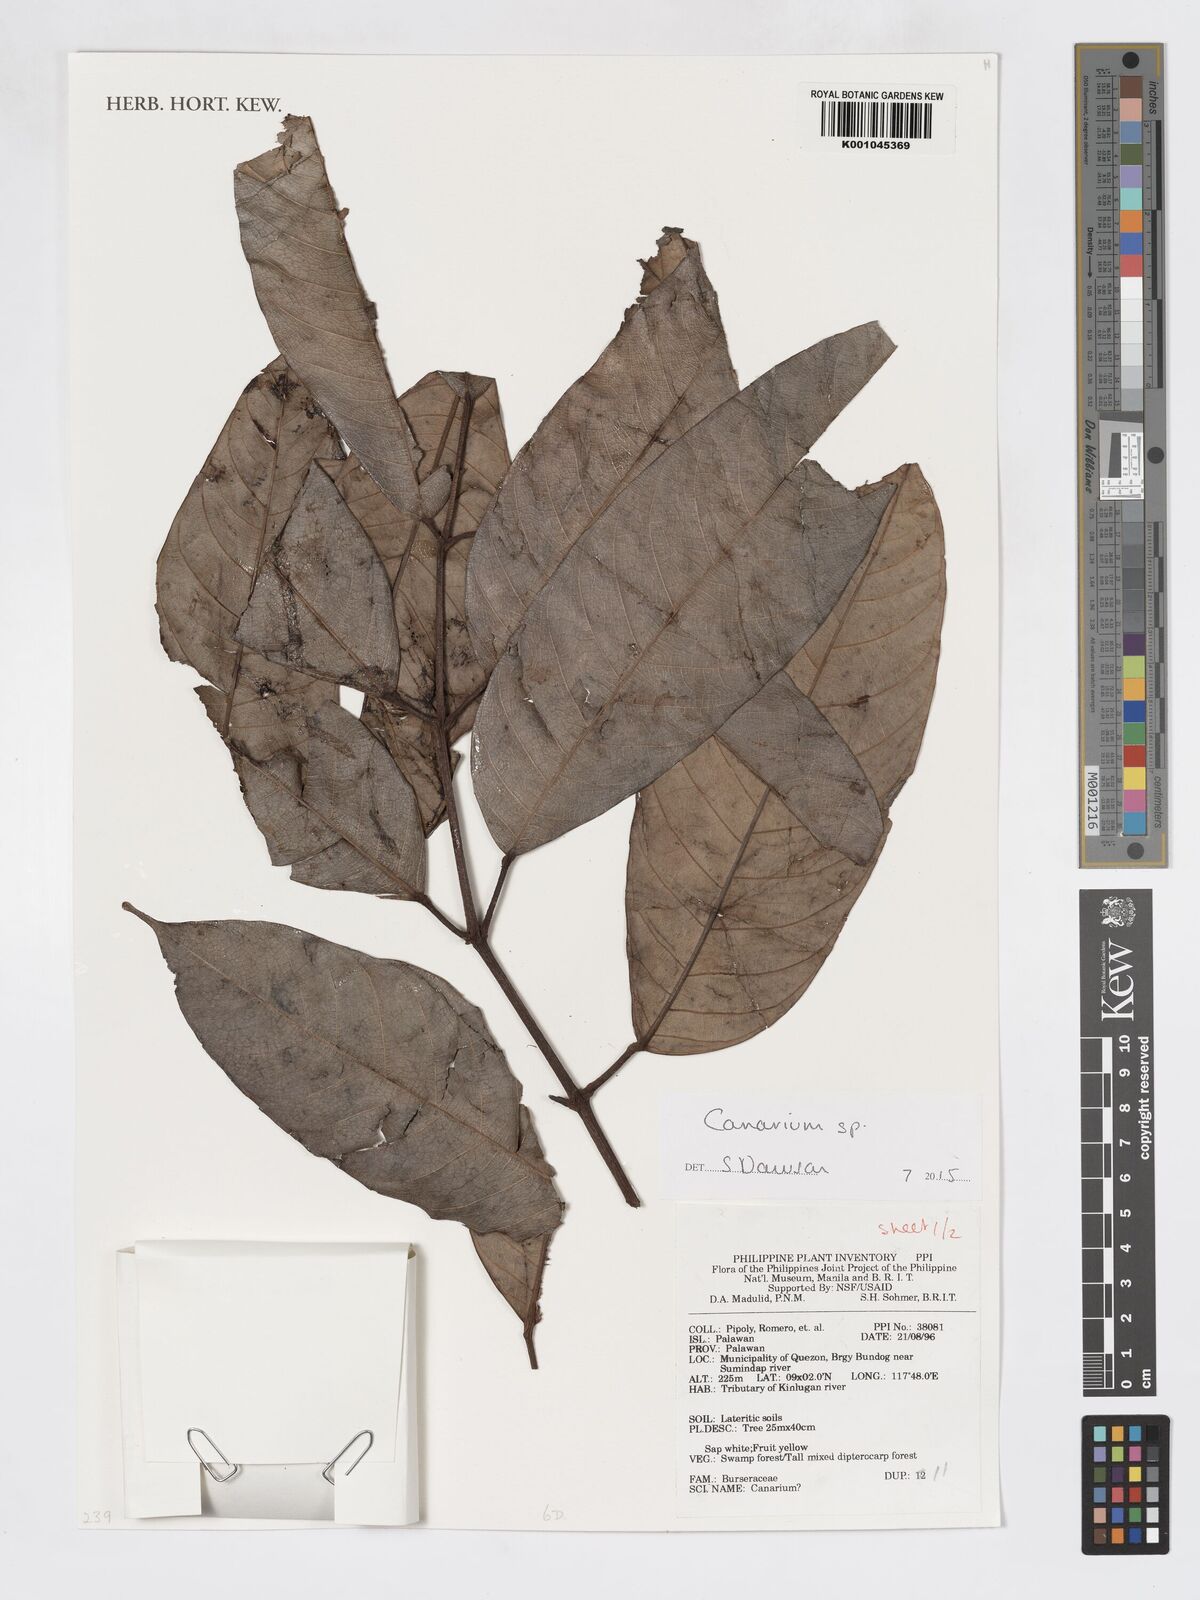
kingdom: Plantae
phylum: Tracheophyta
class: Magnoliopsida
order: Sapindales
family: Burseraceae
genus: Canarium
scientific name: Canarium
